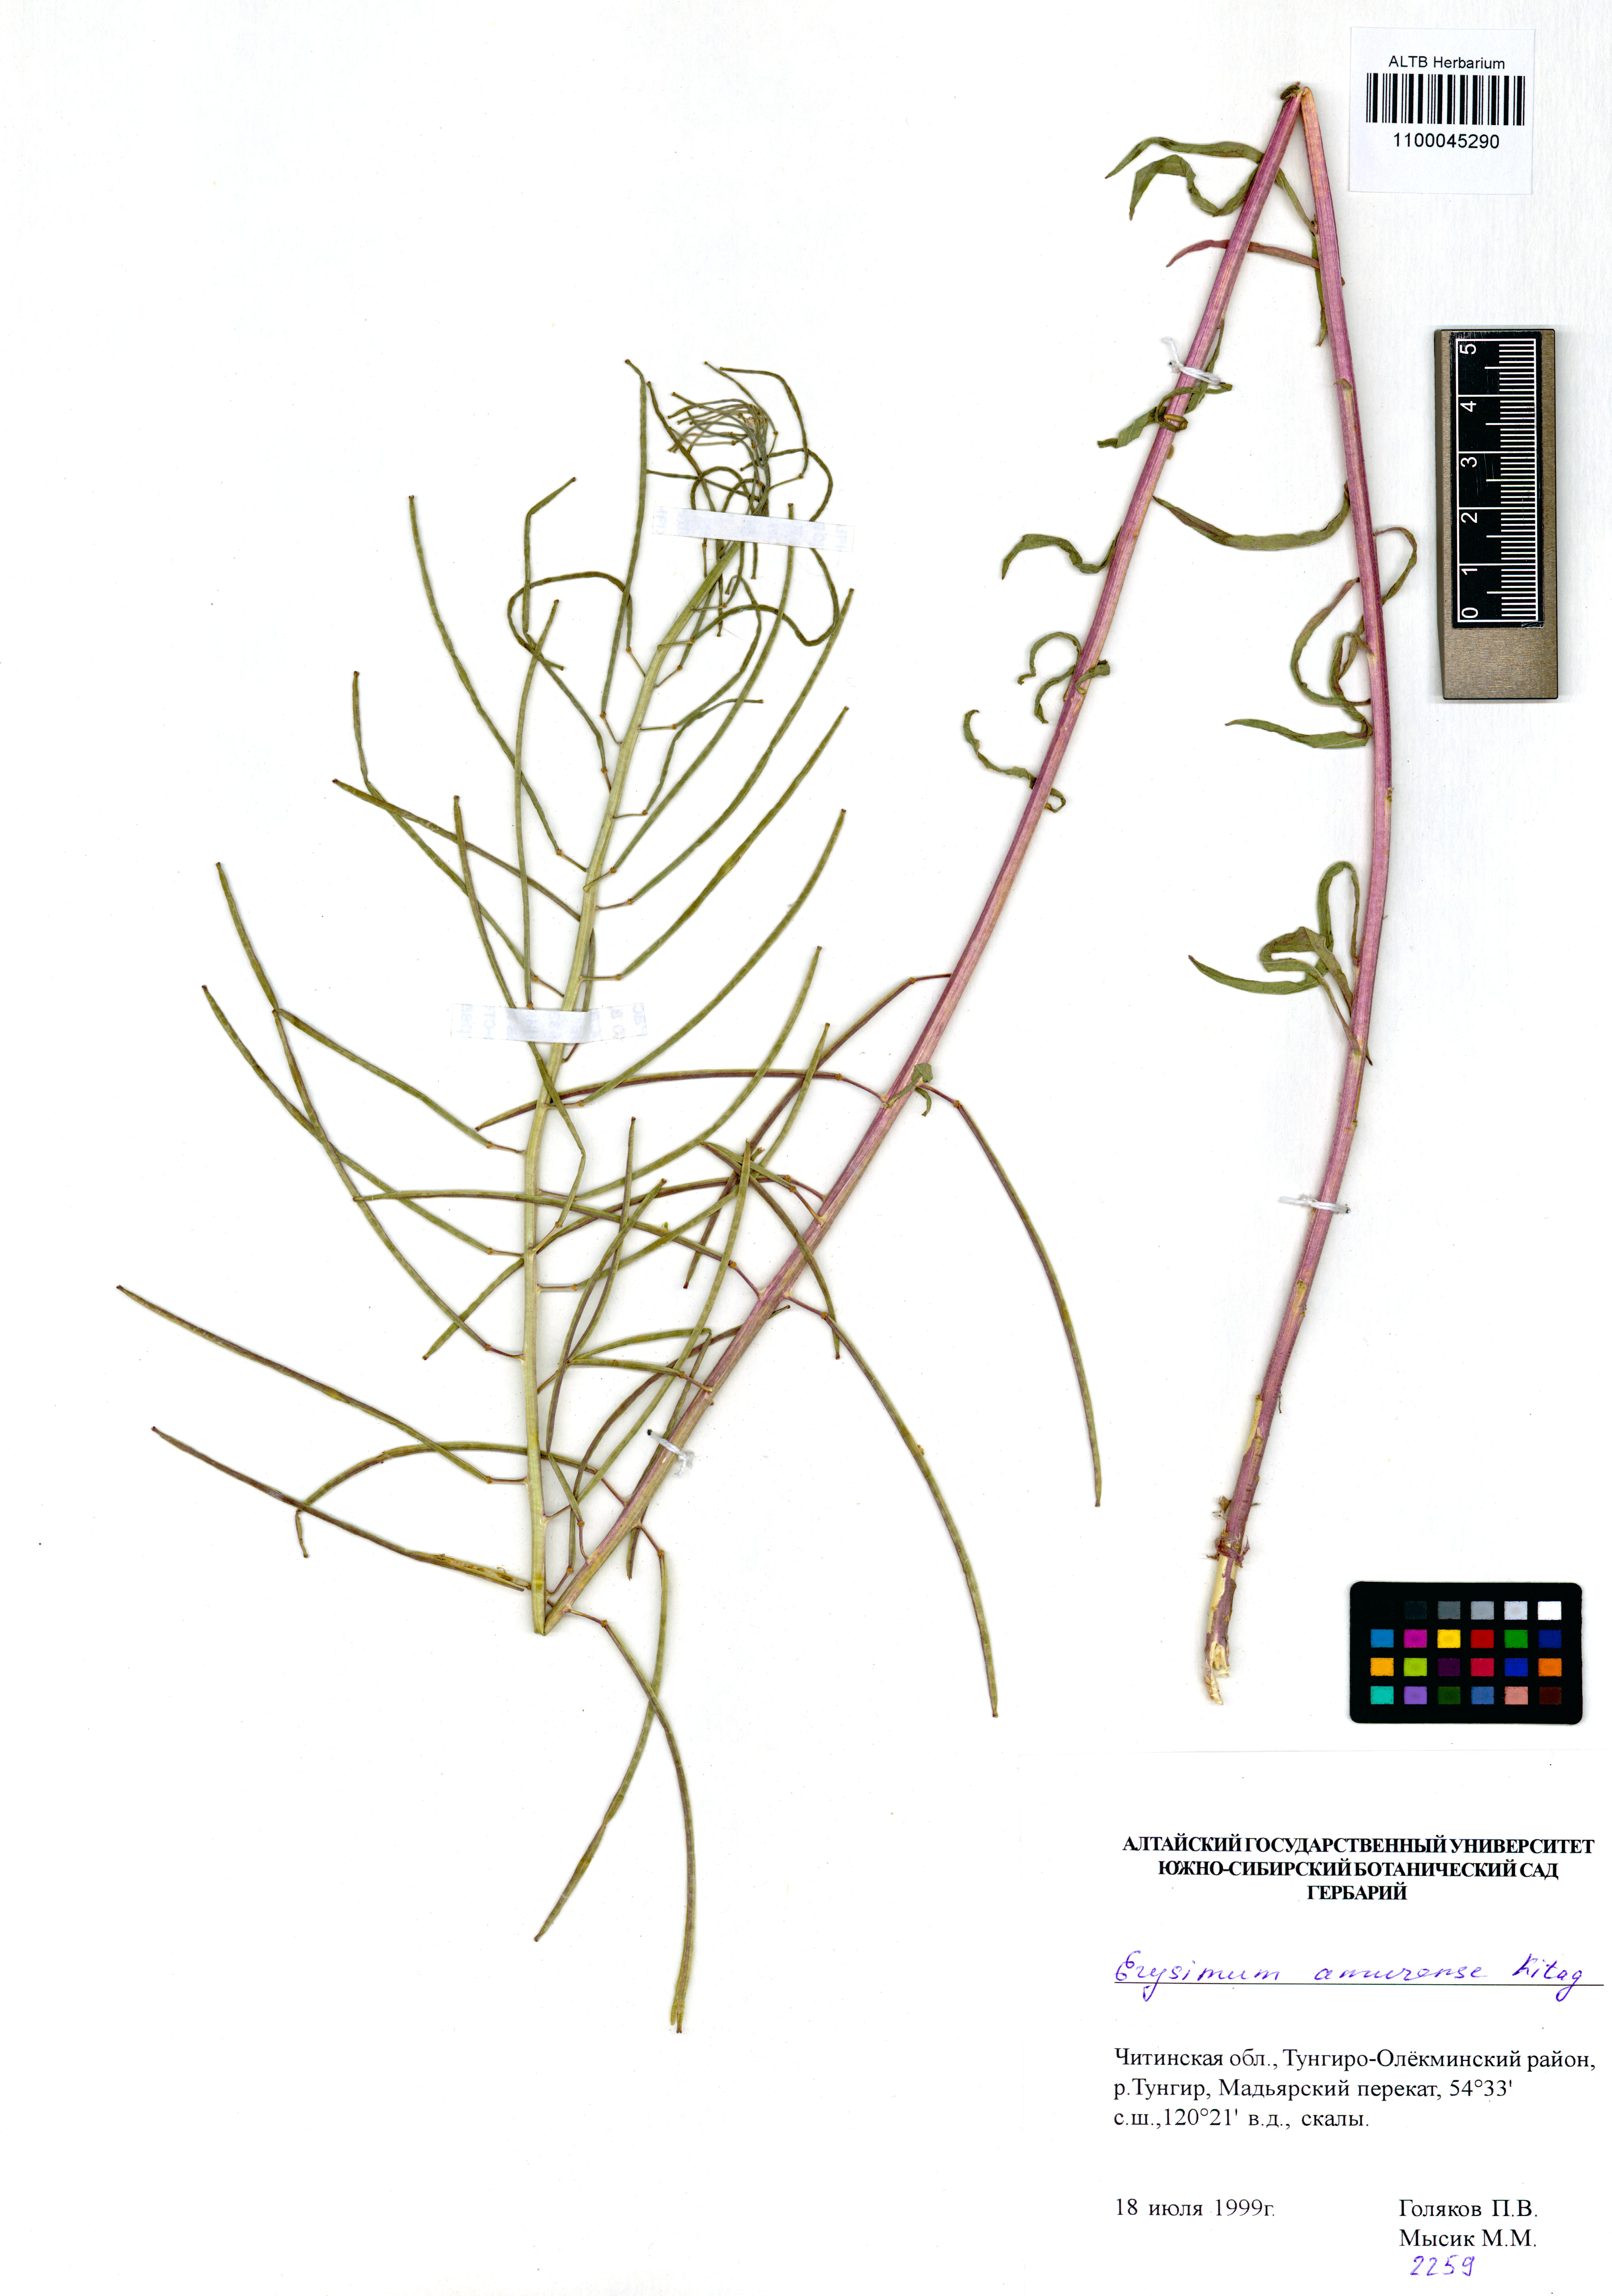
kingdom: Plantae
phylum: Tracheophyta
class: Magnoliopsida
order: Brassicales
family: Brassicaceae
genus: Erysimum
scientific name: Erysimum amurense
